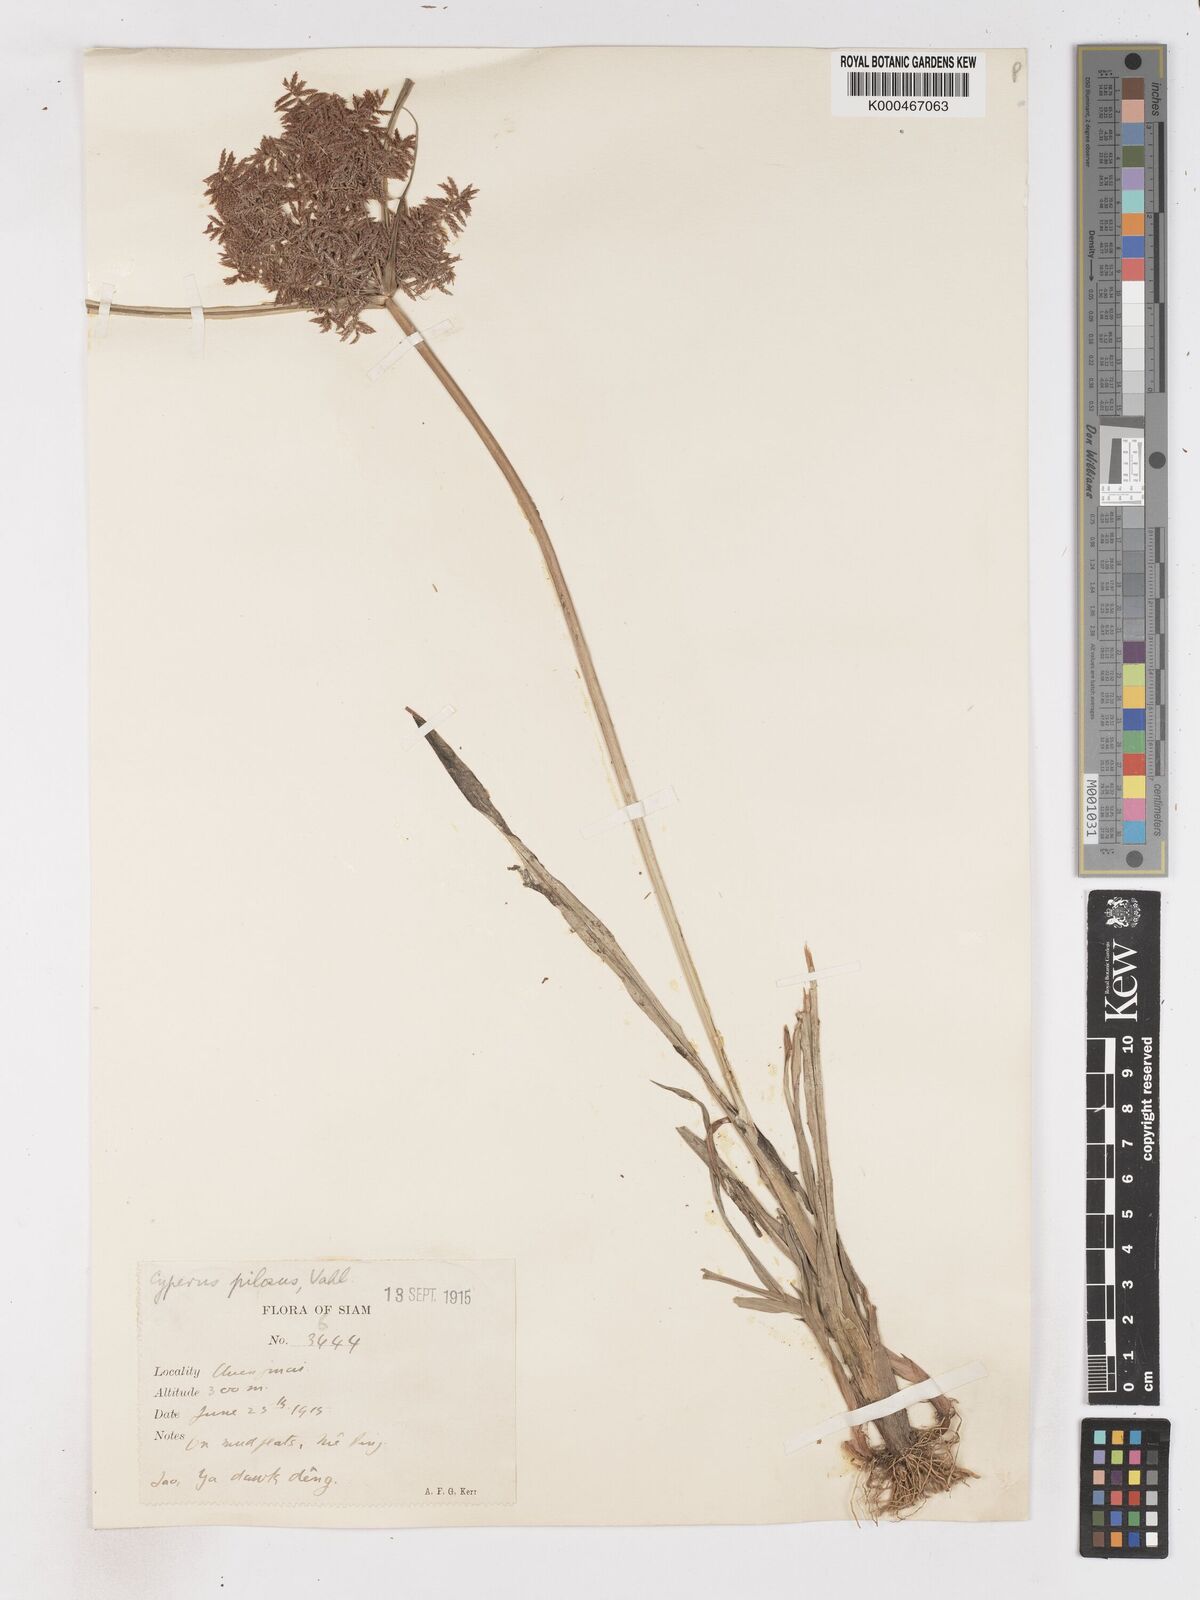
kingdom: Plantae
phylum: Tracheophyta
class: Liliopsida
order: Poales
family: Cyperaceae
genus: Cyperus
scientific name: Cyperus pilosus
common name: Fuzzy flatsedge
